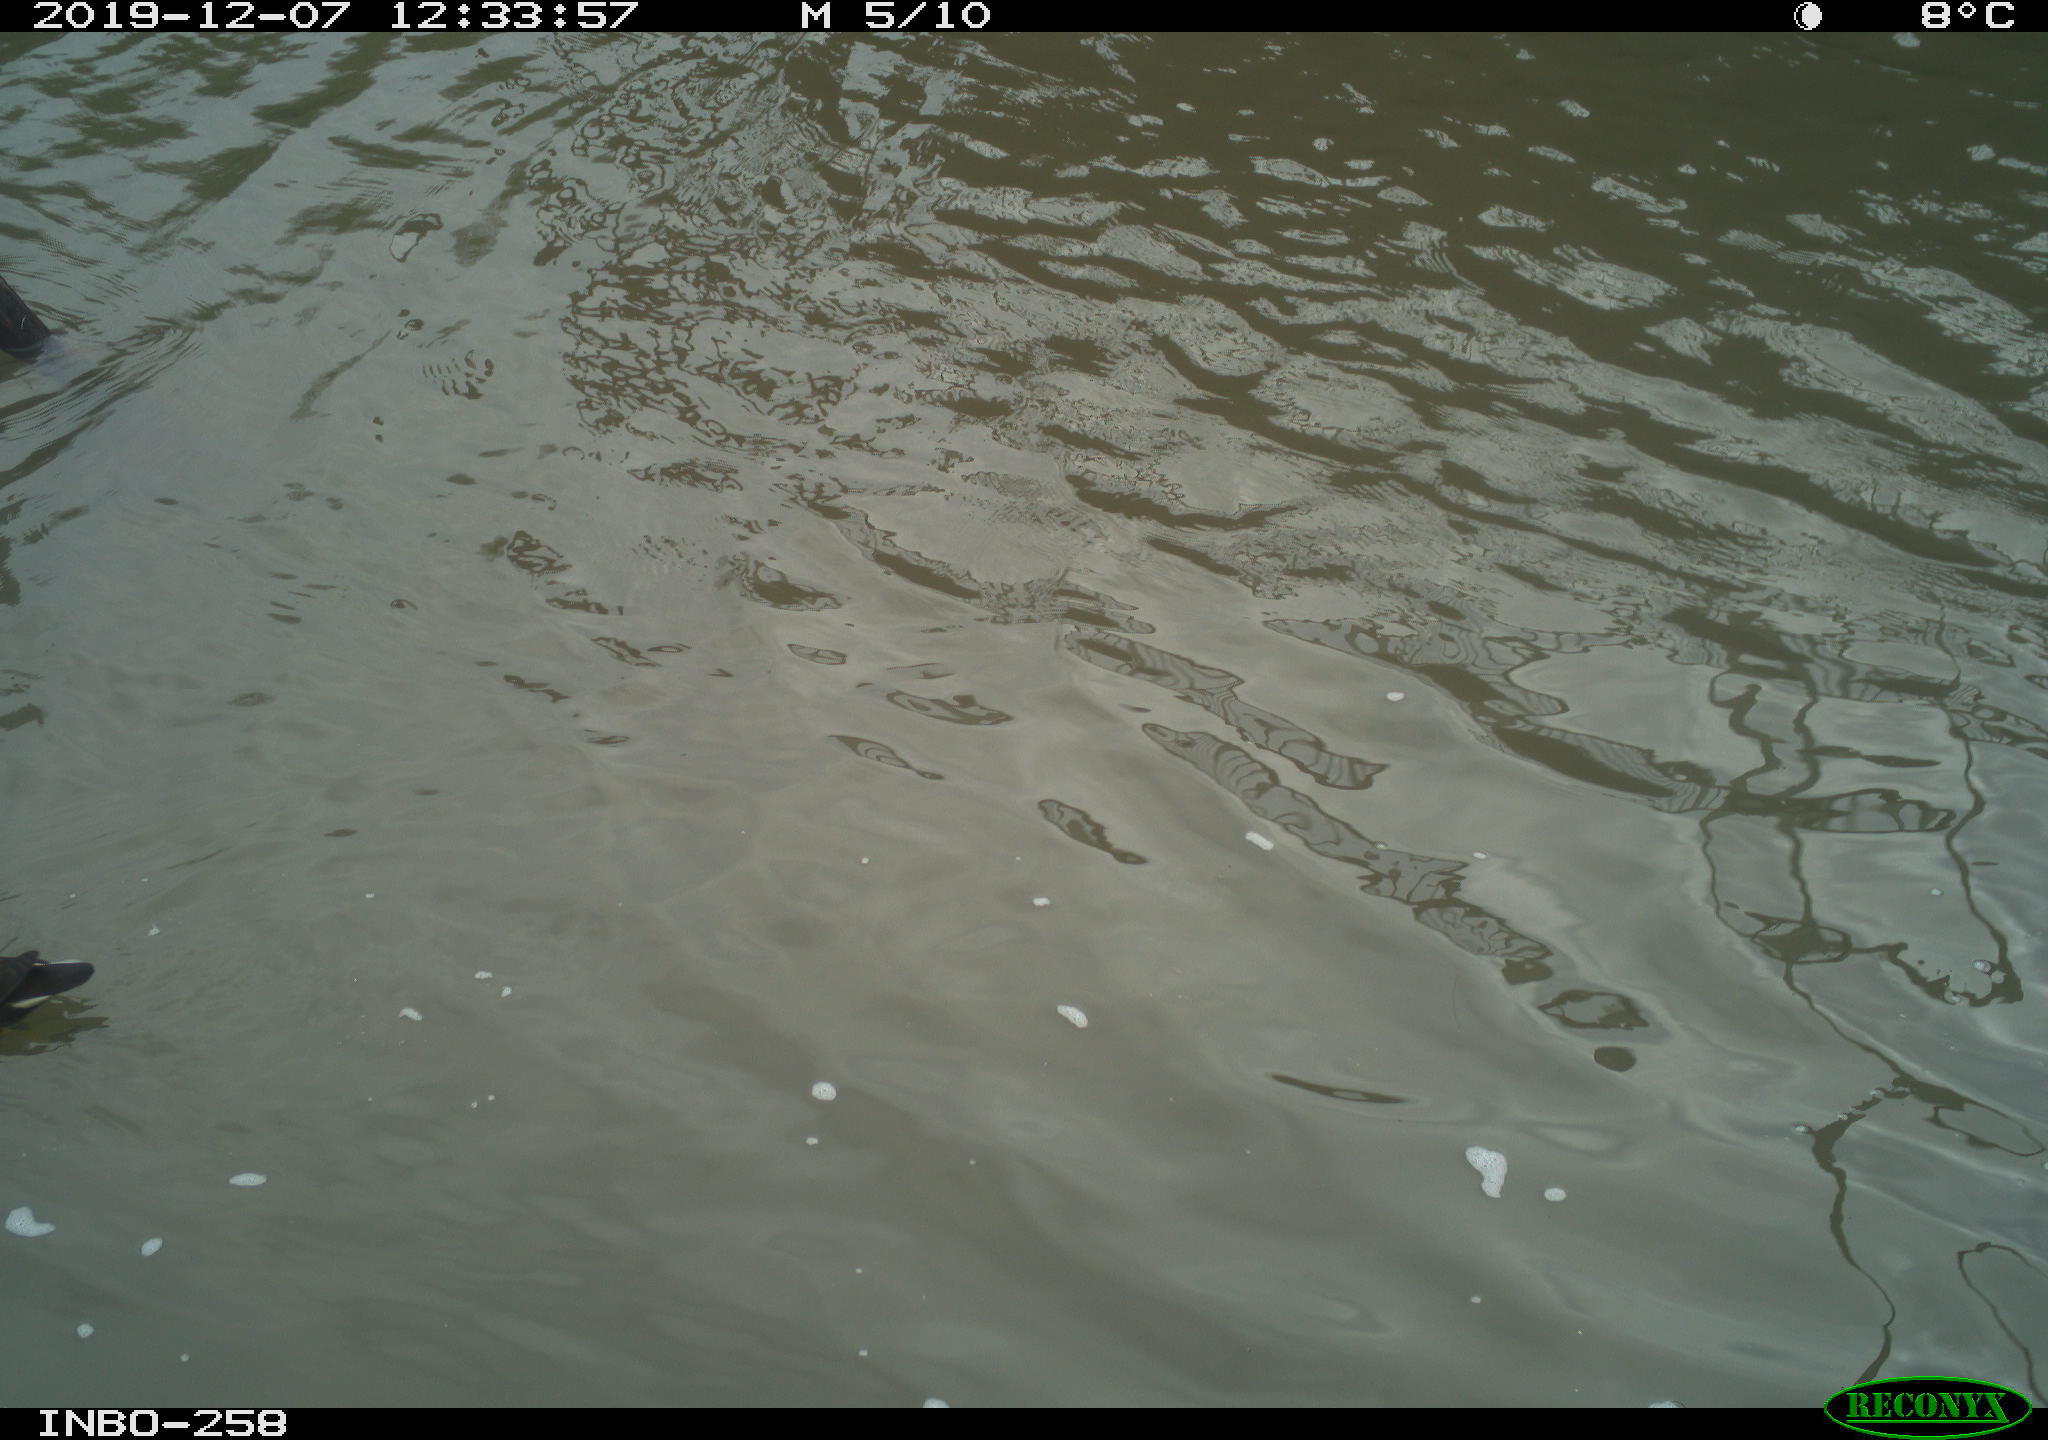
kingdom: Animalia
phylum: Chordata
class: Aves
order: Gruiformes
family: Rallidae
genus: Gallinula
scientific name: Gallinula chloropus
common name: Common moorhen
